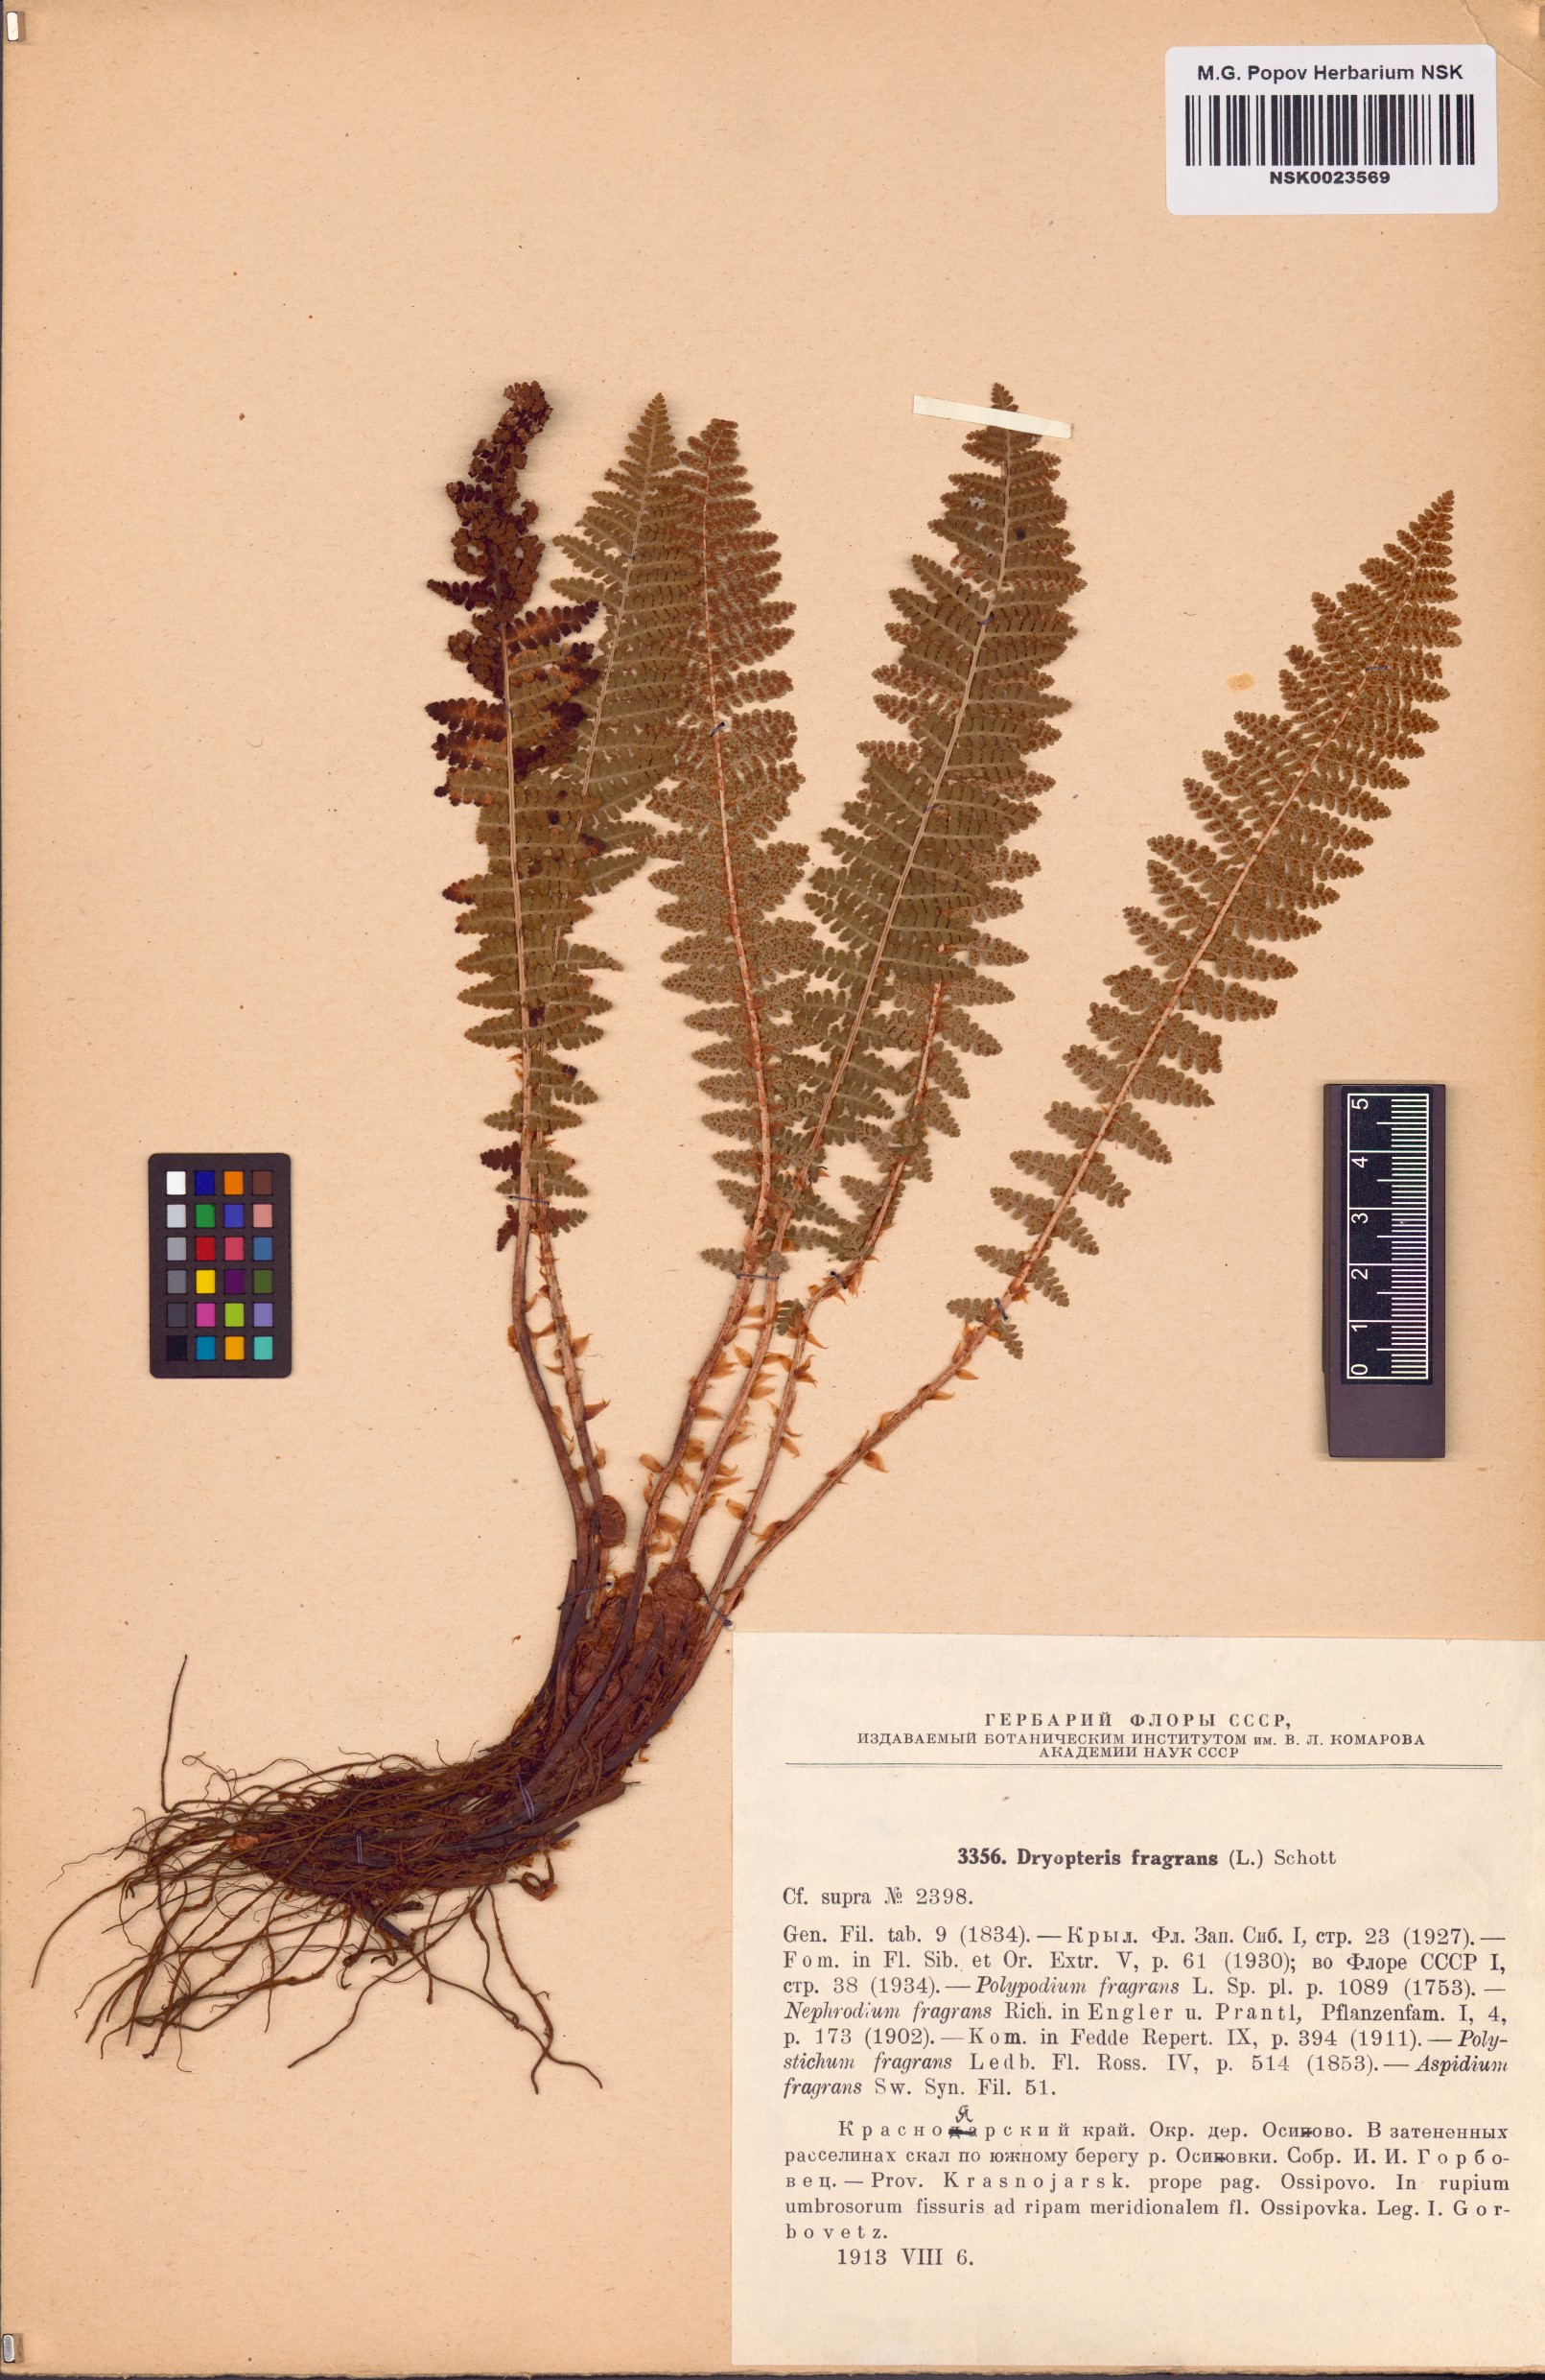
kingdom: Plantae
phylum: Tracheophyta
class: Polypodiopsida
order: Polypodiales
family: Dryopteridaceae
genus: Dryopteris
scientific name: Dryopteris fragrans
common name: Fragrant wood fern
